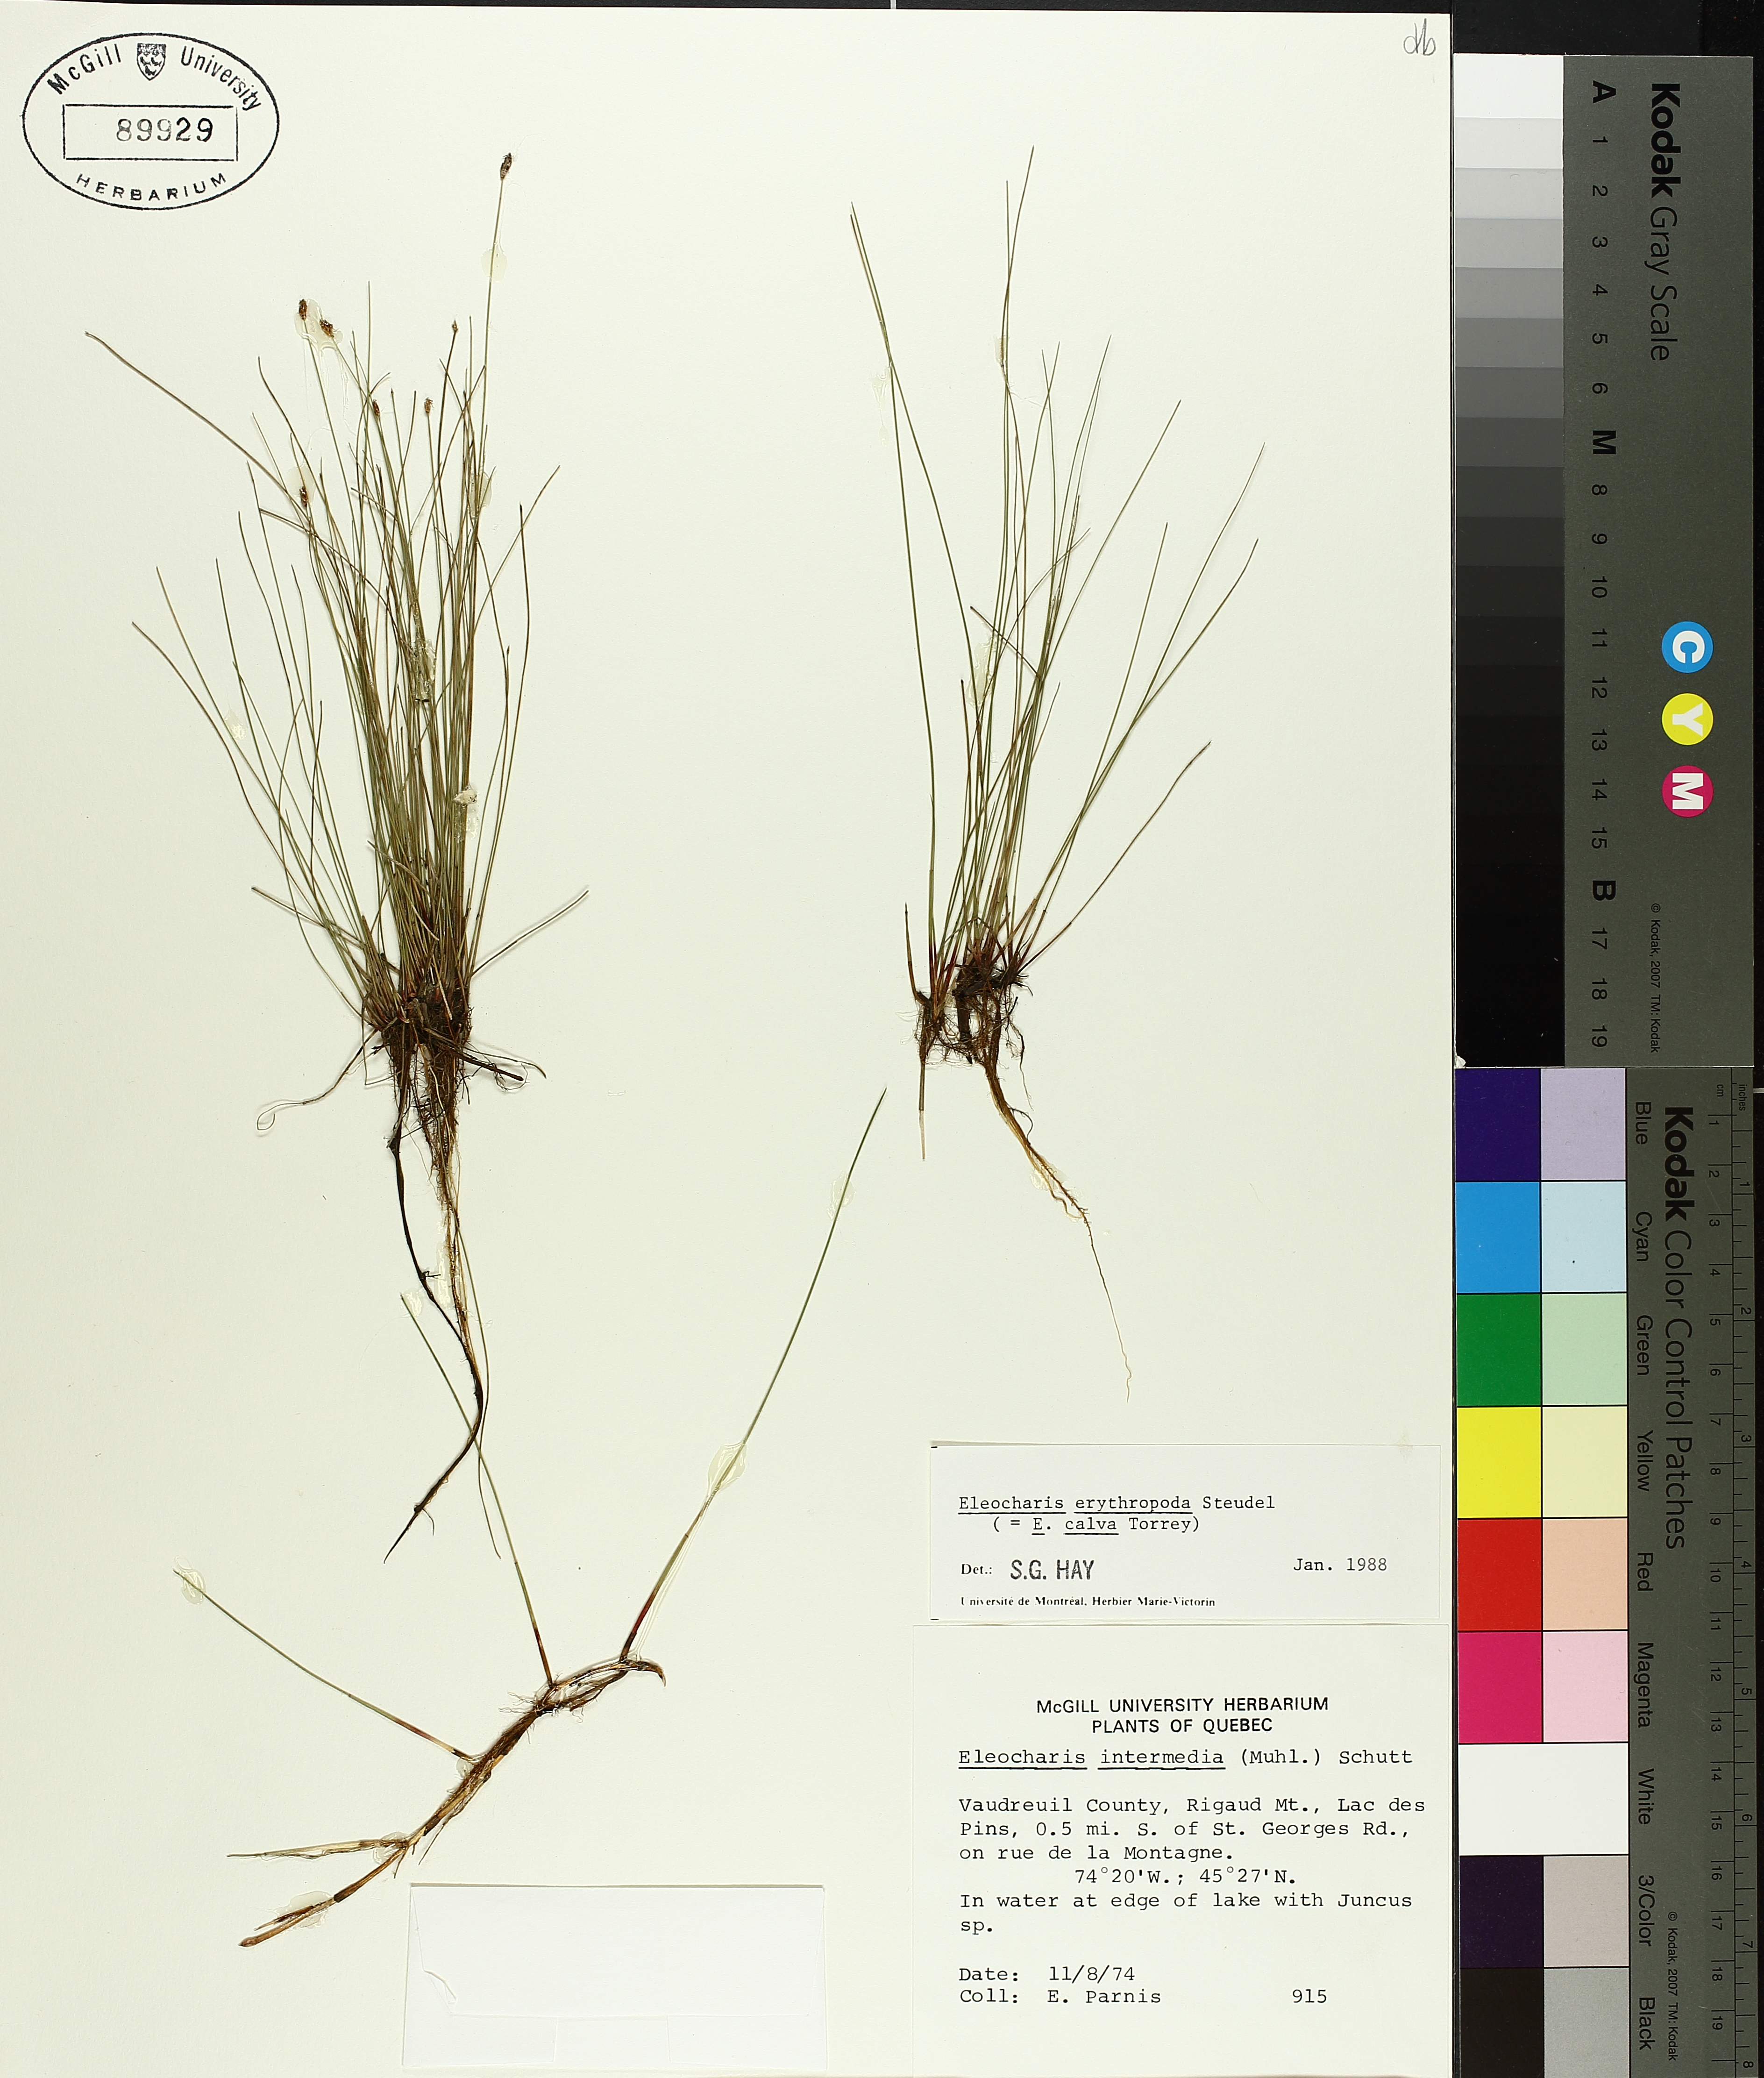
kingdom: Plantae
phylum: Tracheophyta
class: Liliopsida
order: Poales
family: Cyperaceae
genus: Eleocharis
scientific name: Eleocharis erythropoda
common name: Bald spikerush
